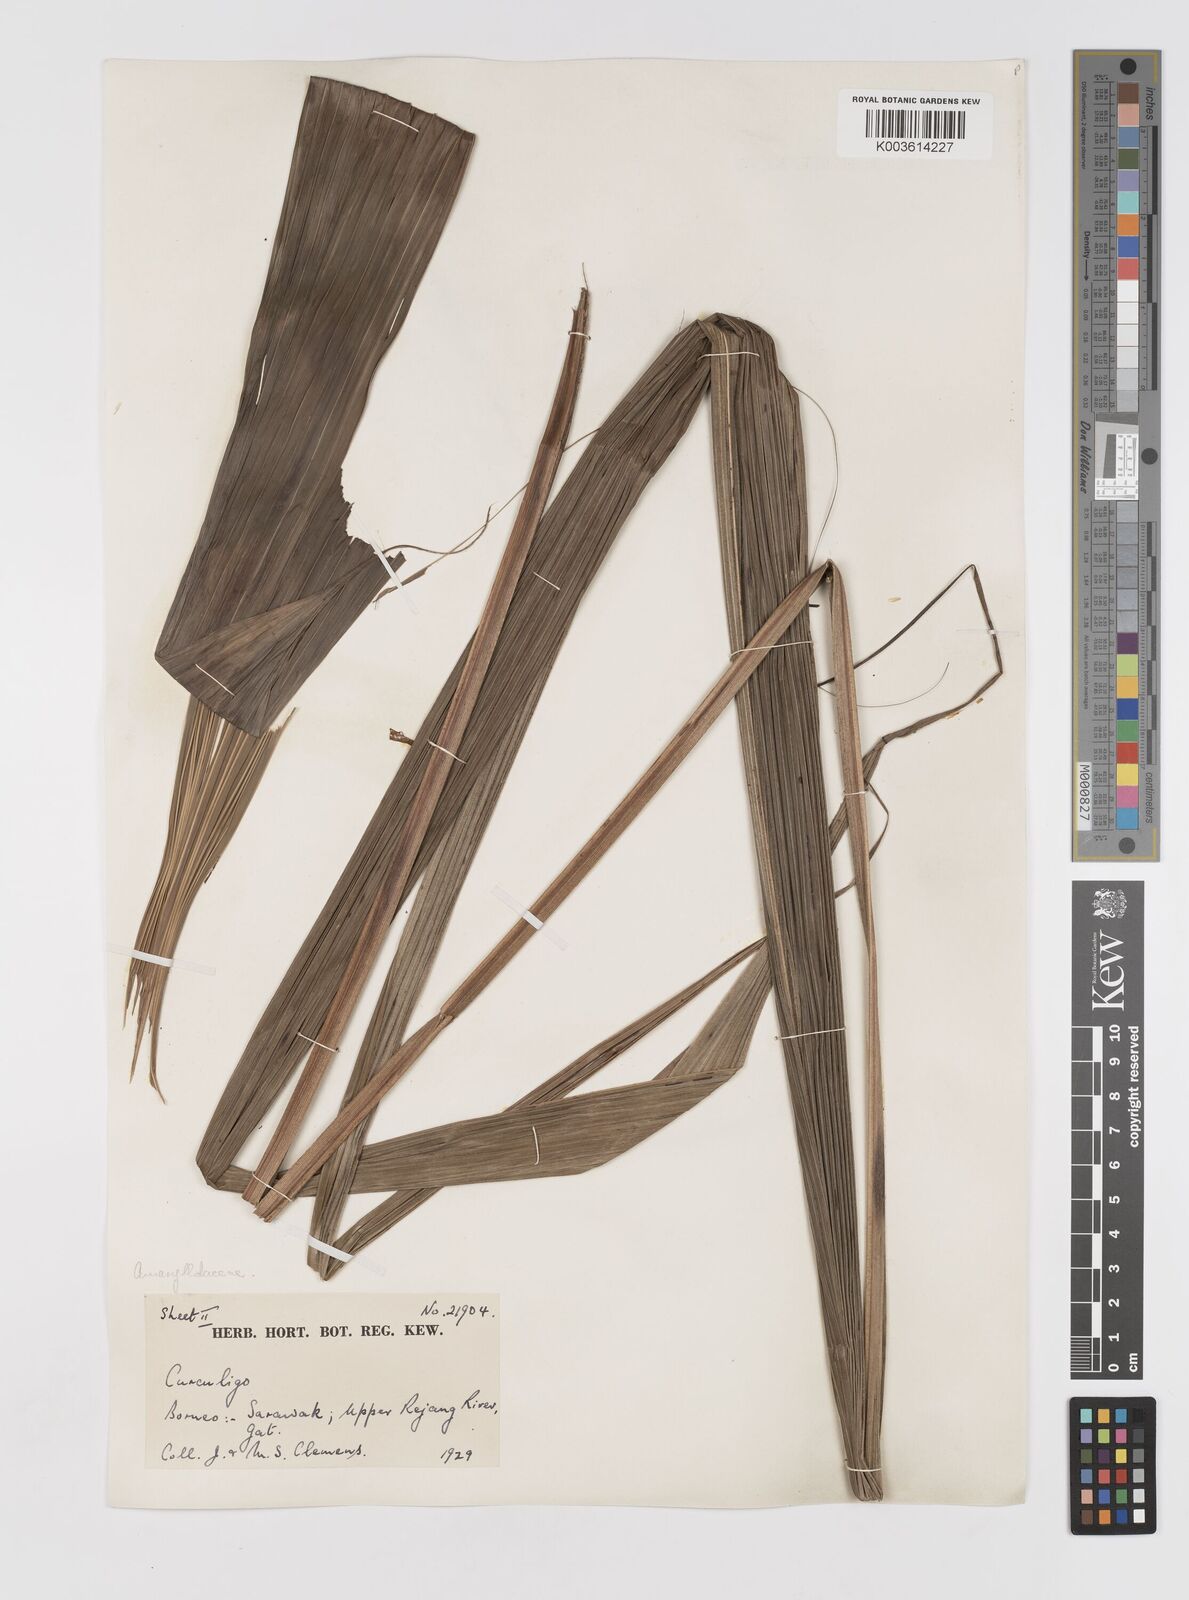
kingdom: Plantae
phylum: Tracheophyta
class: Liliopsida
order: Asparagales
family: Hypoxidaceae
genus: Curculigo
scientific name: Curculigo
